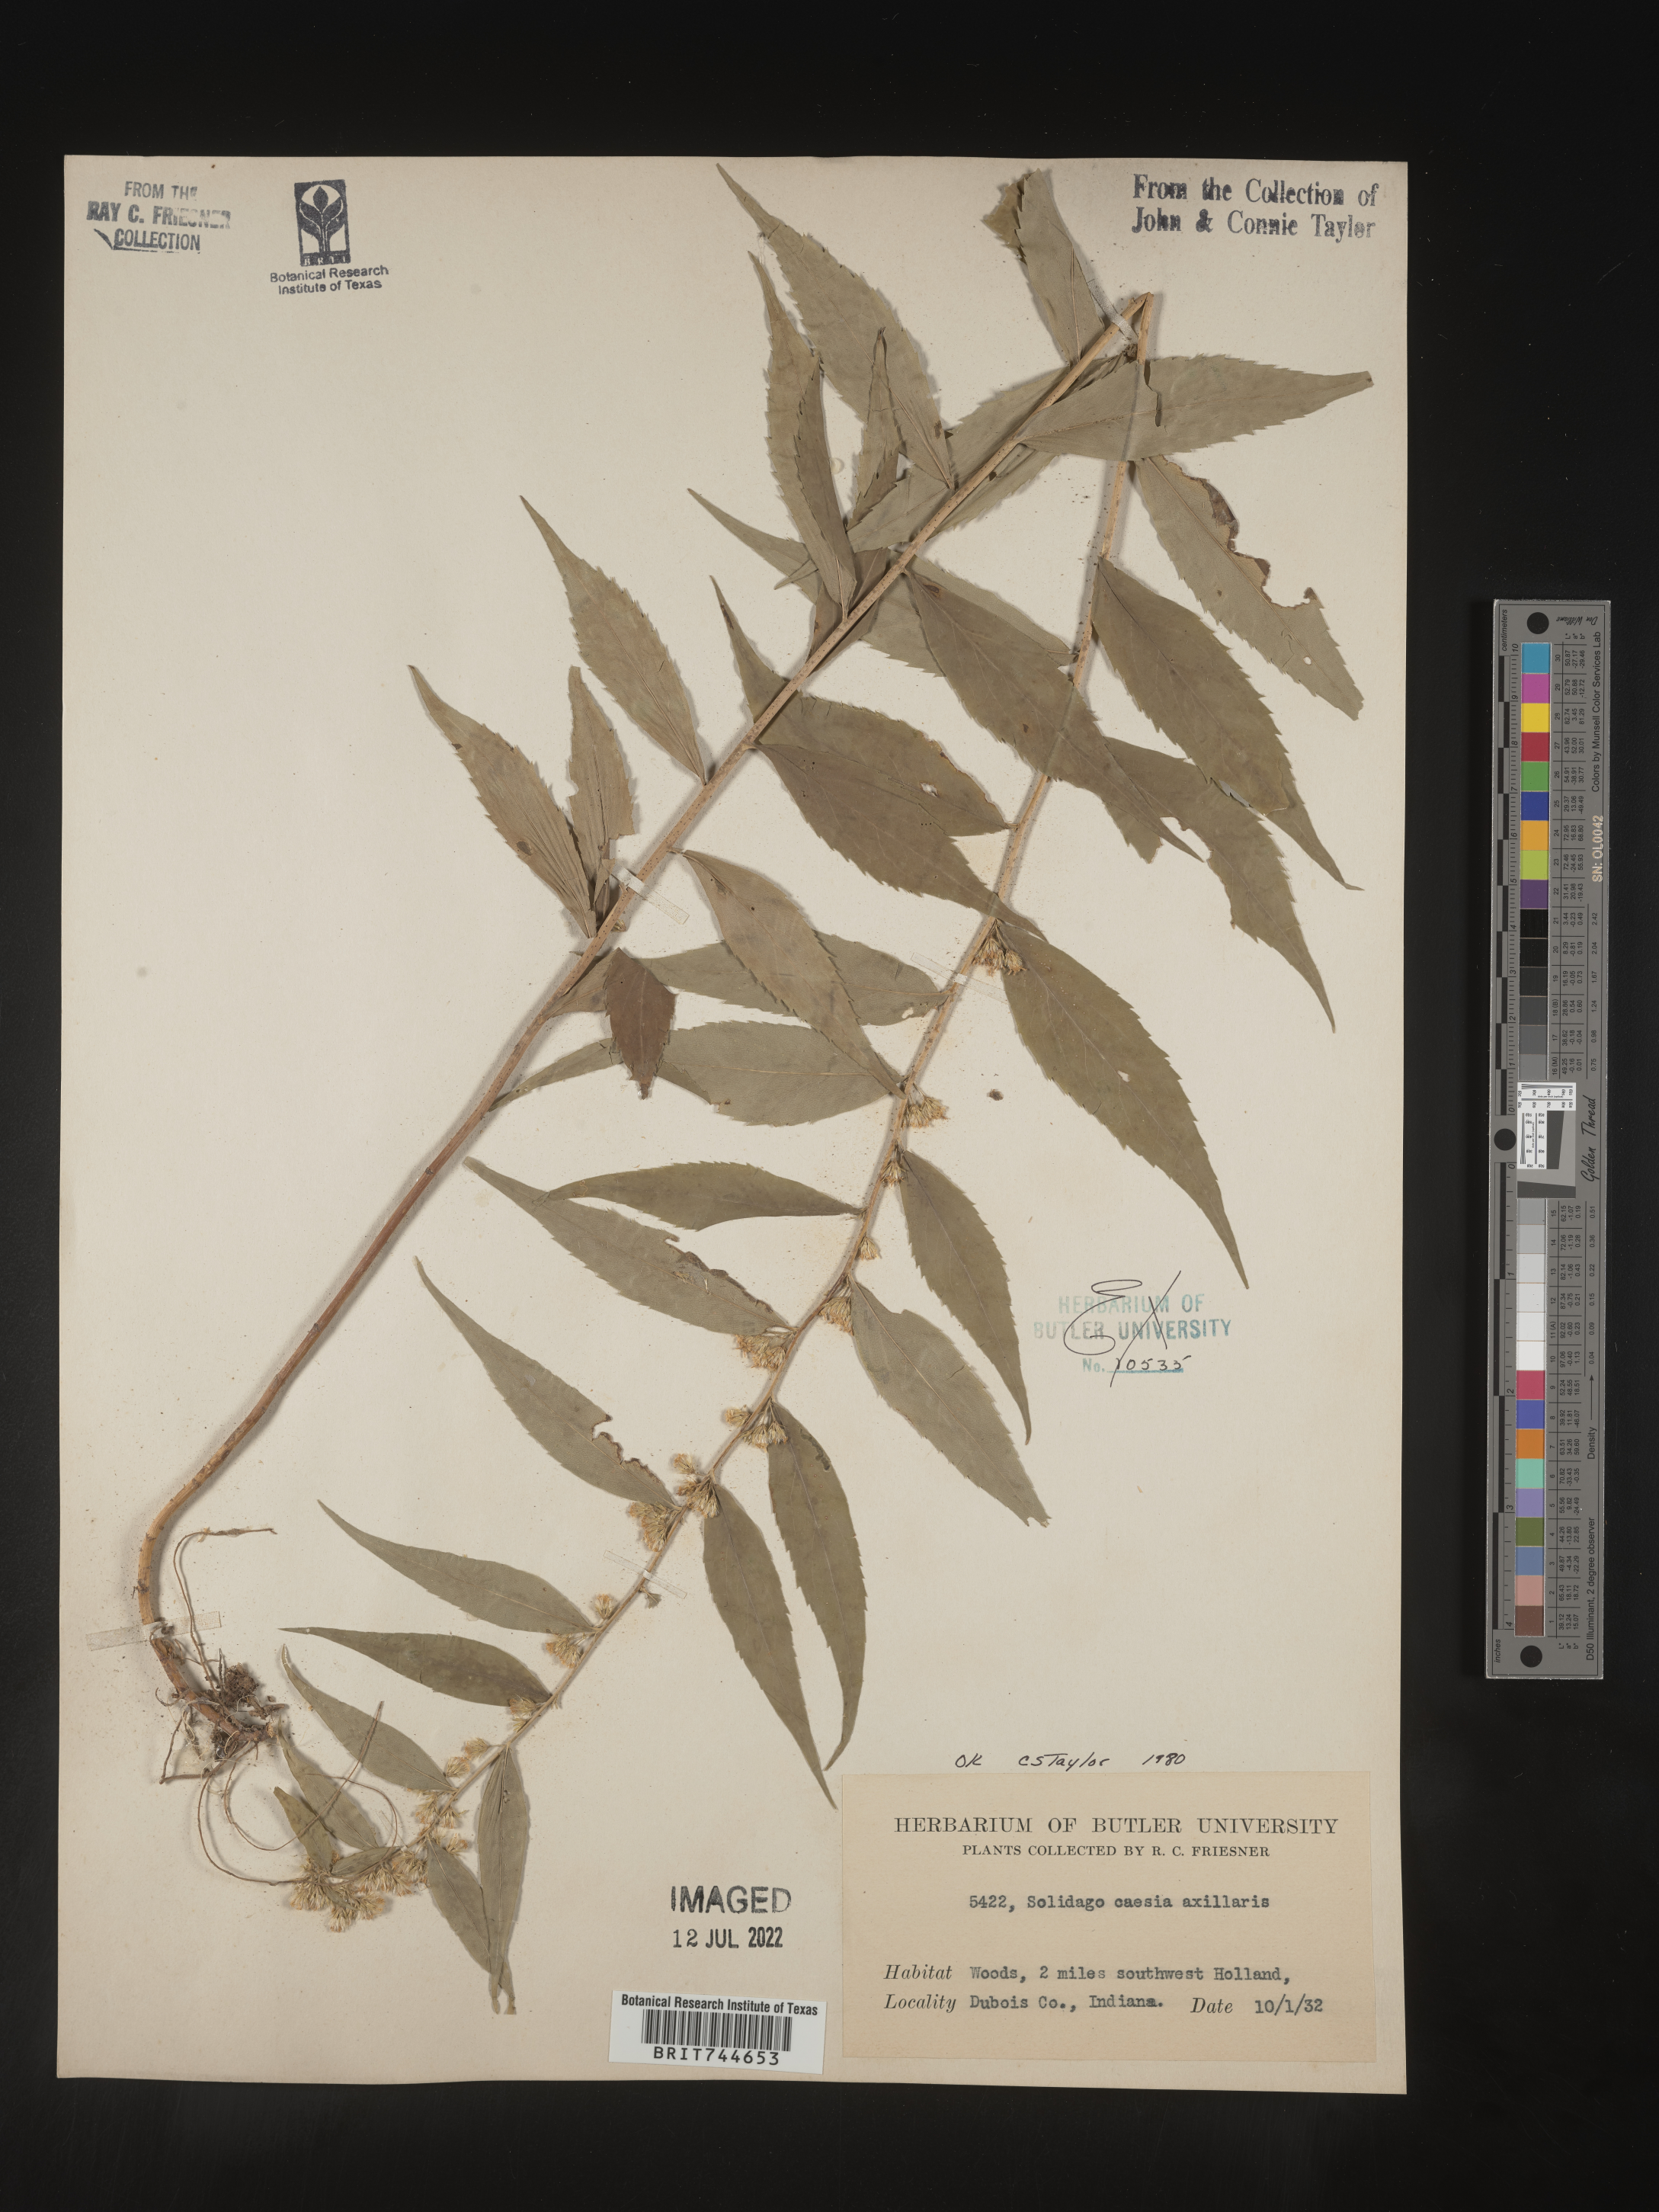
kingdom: Plantae
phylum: Tracheophyta
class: Magnoliopsida
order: Asterales
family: Asteraceae
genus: Solidago
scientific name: Solidago caesia
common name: Woodland goldenrod
